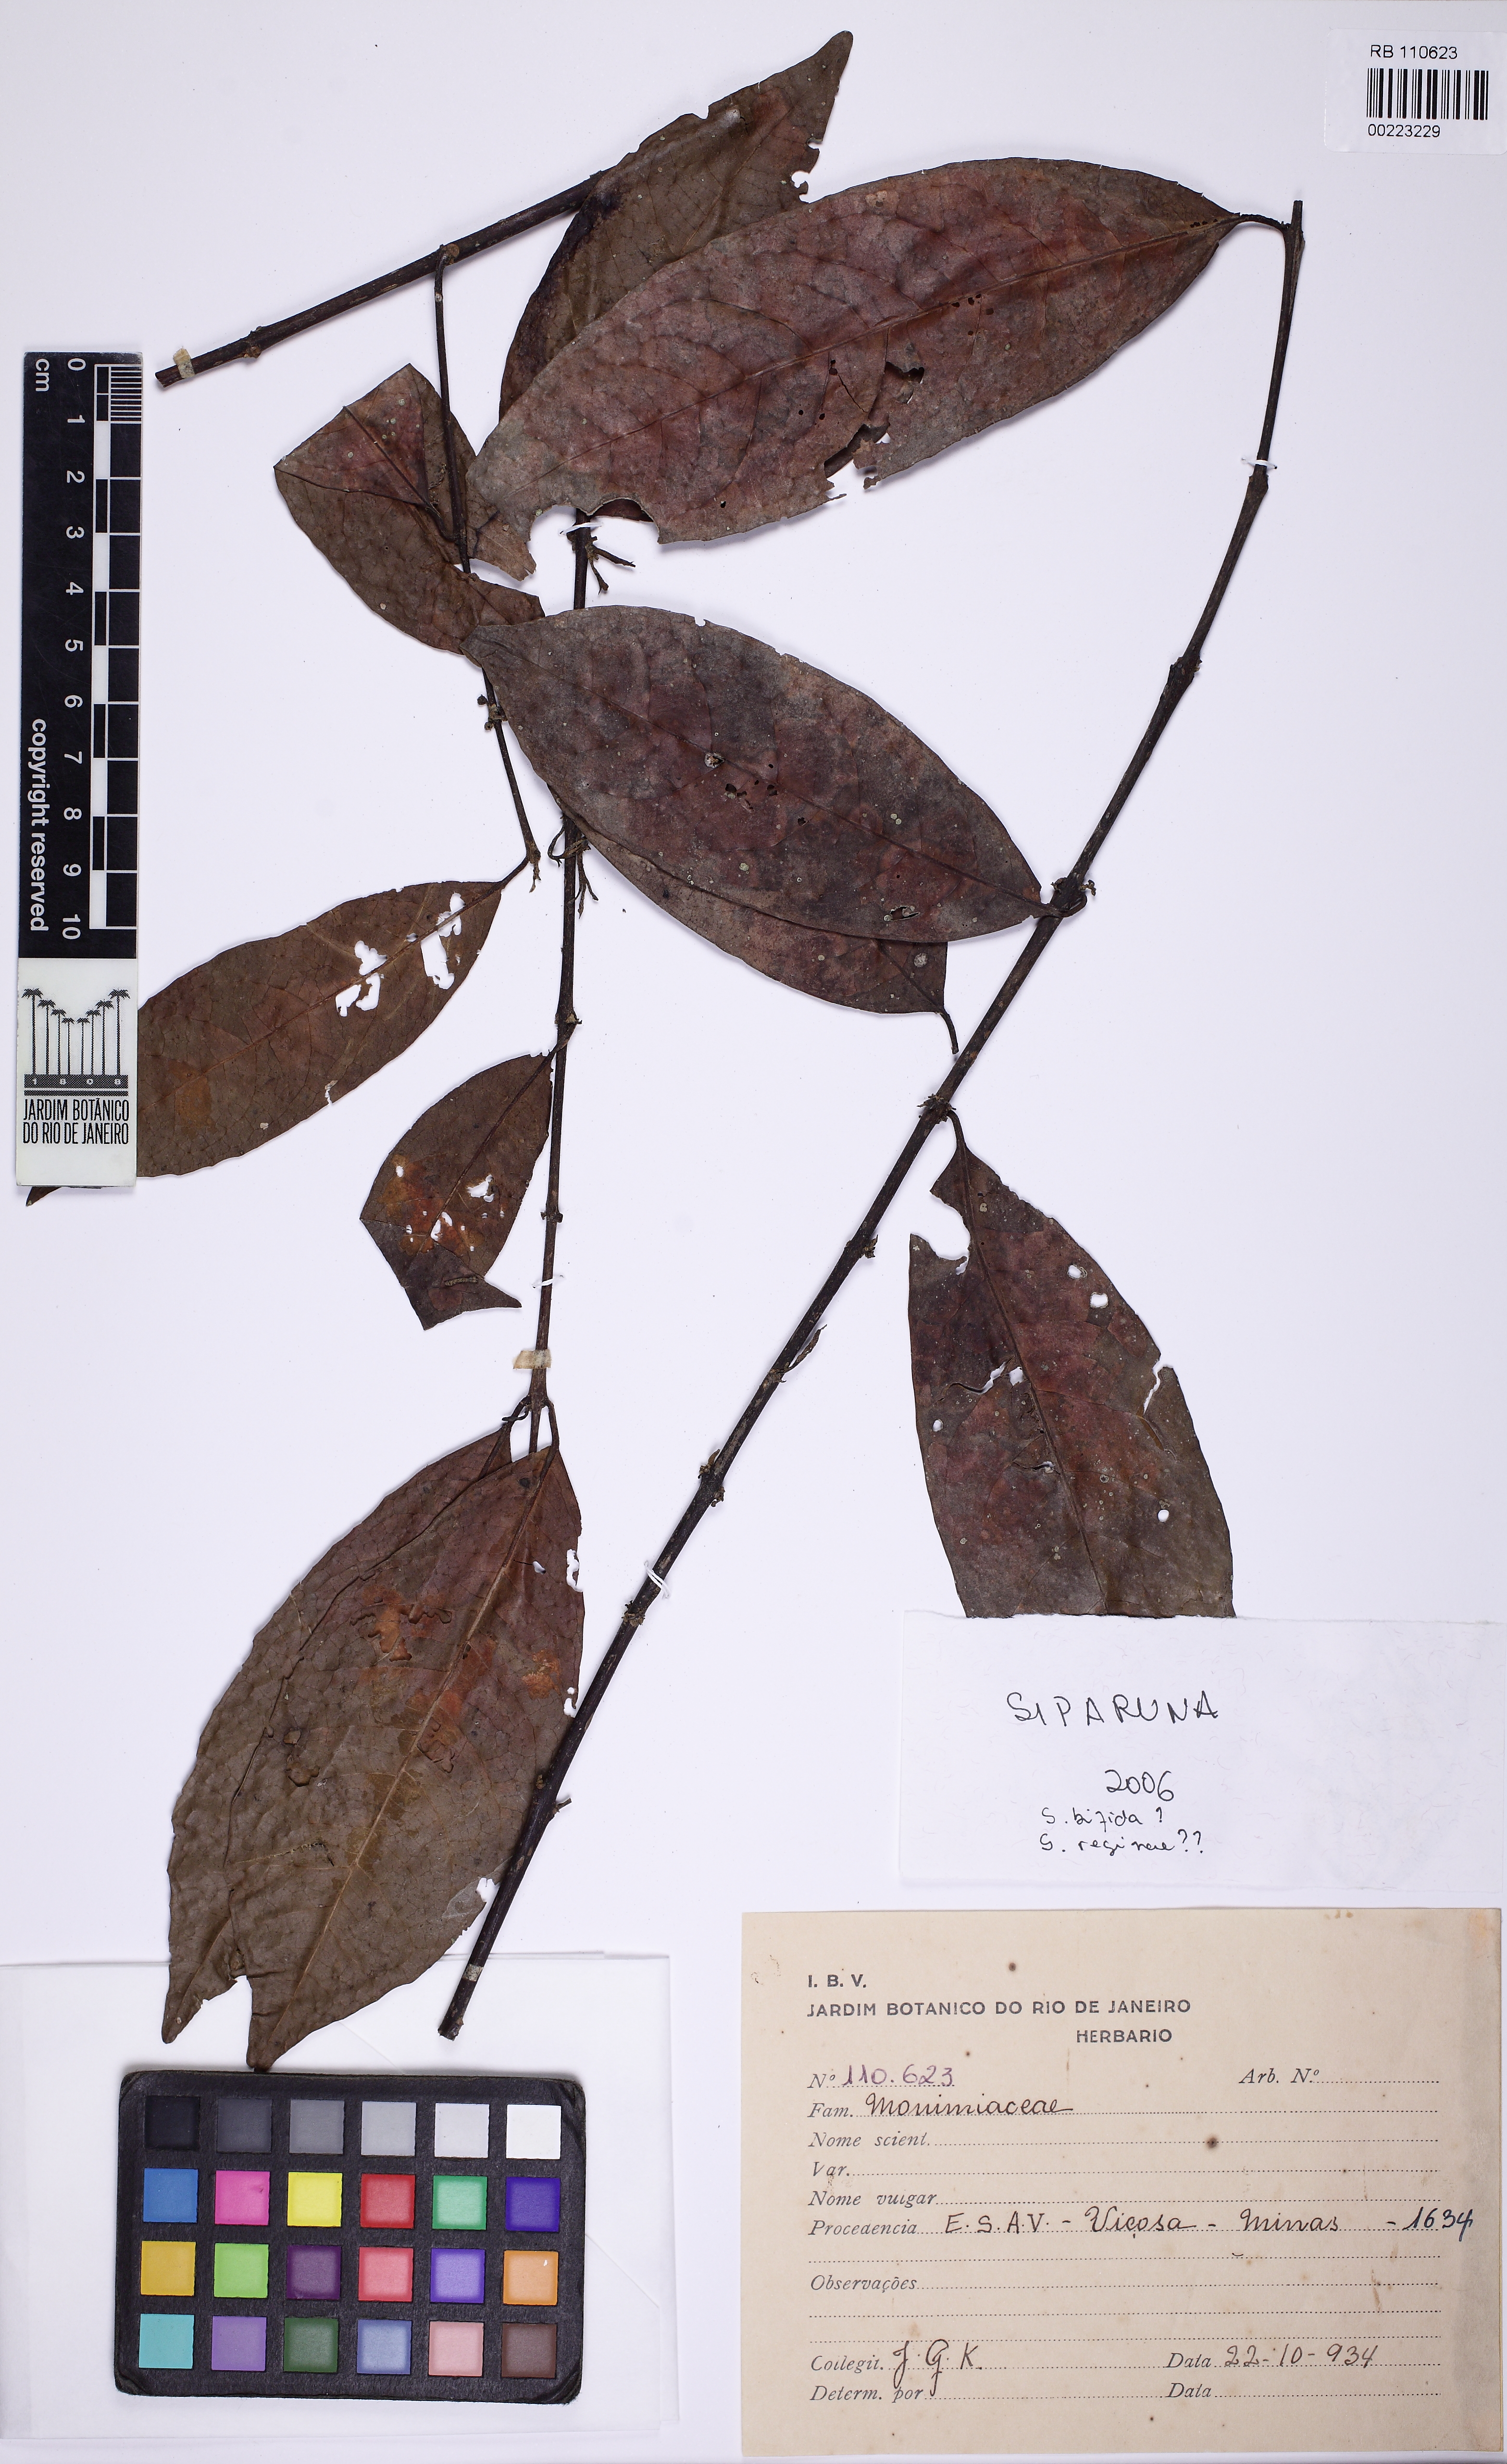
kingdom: Plantae
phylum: Tracheophyta
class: Magnoliopsida
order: Laurales
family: Siparunaceae
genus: Siparuna
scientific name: Siparuna bifida
